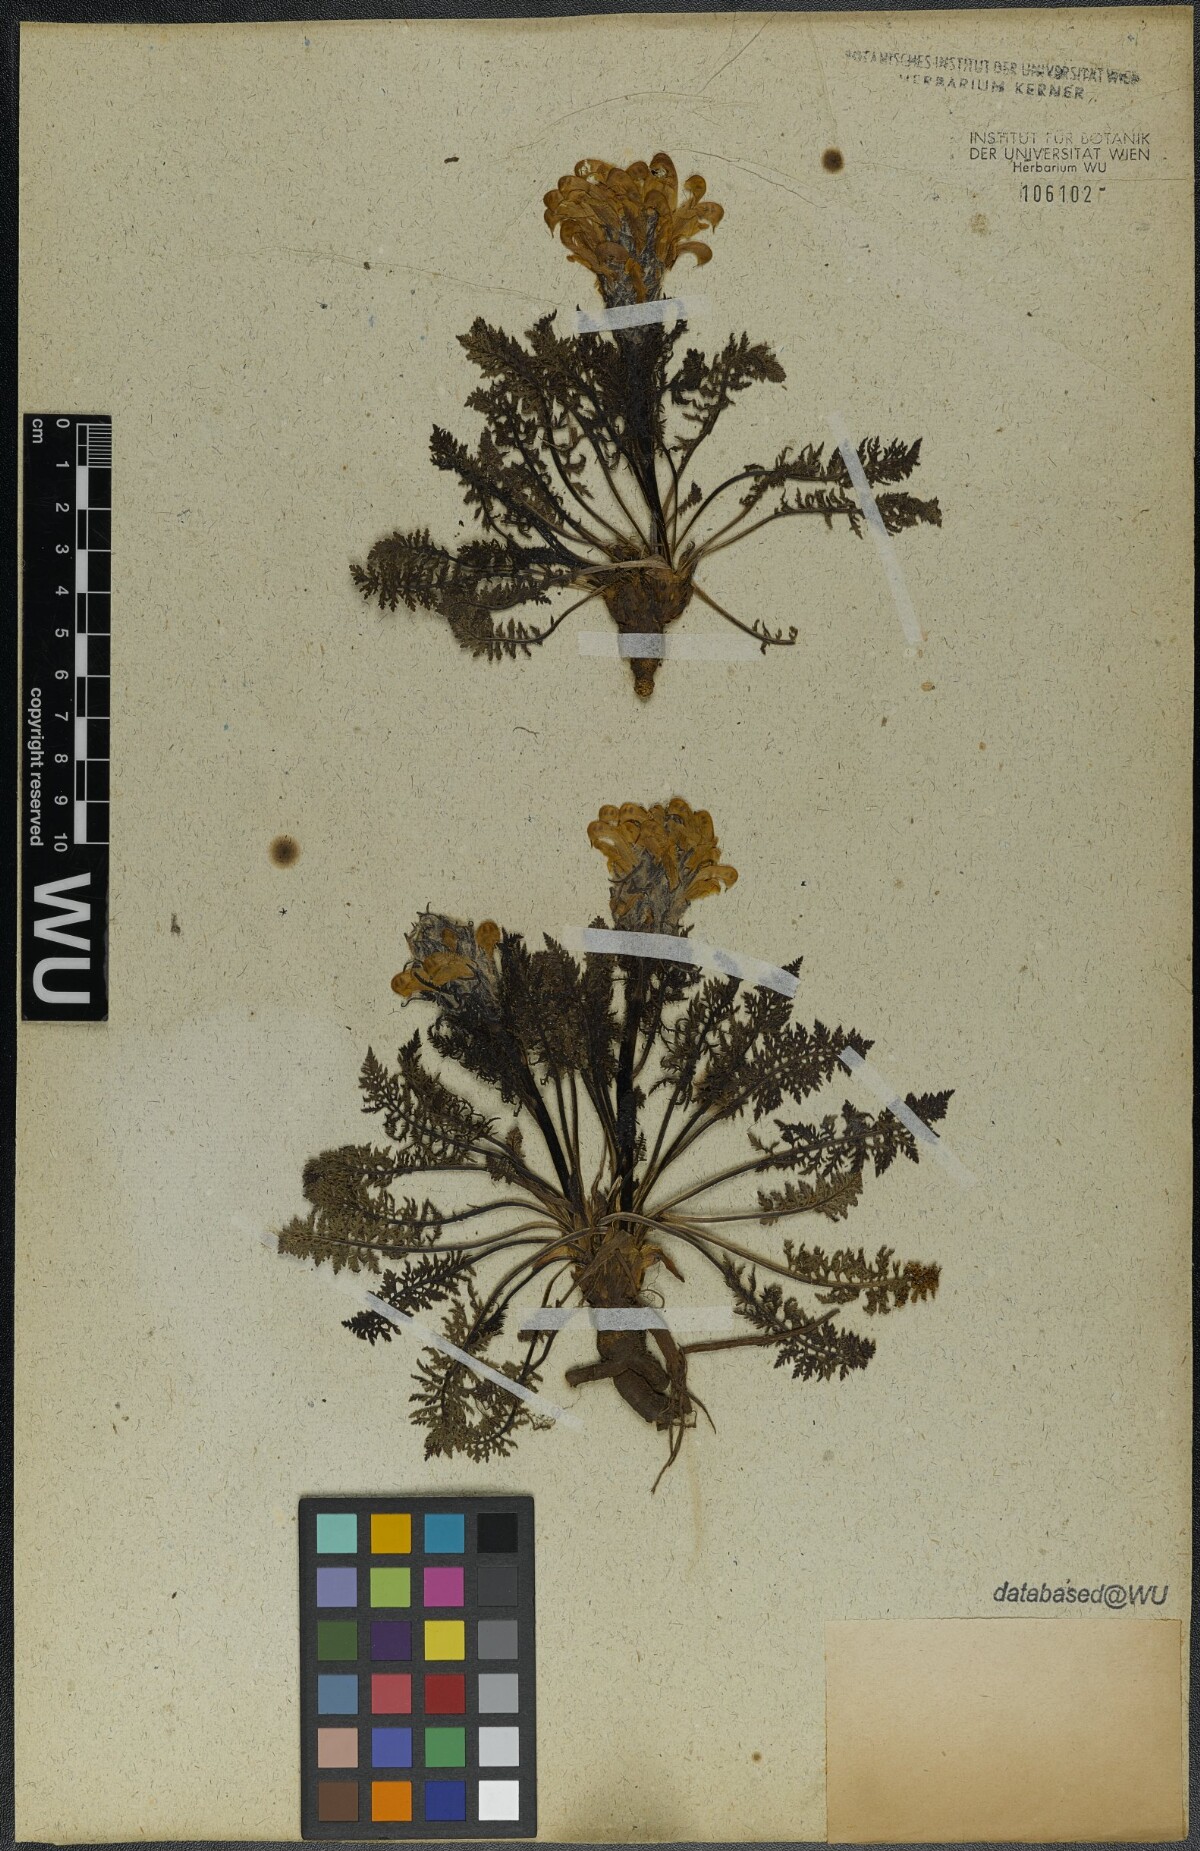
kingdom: Plantae
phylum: Tracheophyta
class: Magnoliopsida
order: Lamiales
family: Orobanchaceae
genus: Pedicularis
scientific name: Pedicularis friderici-augusti
